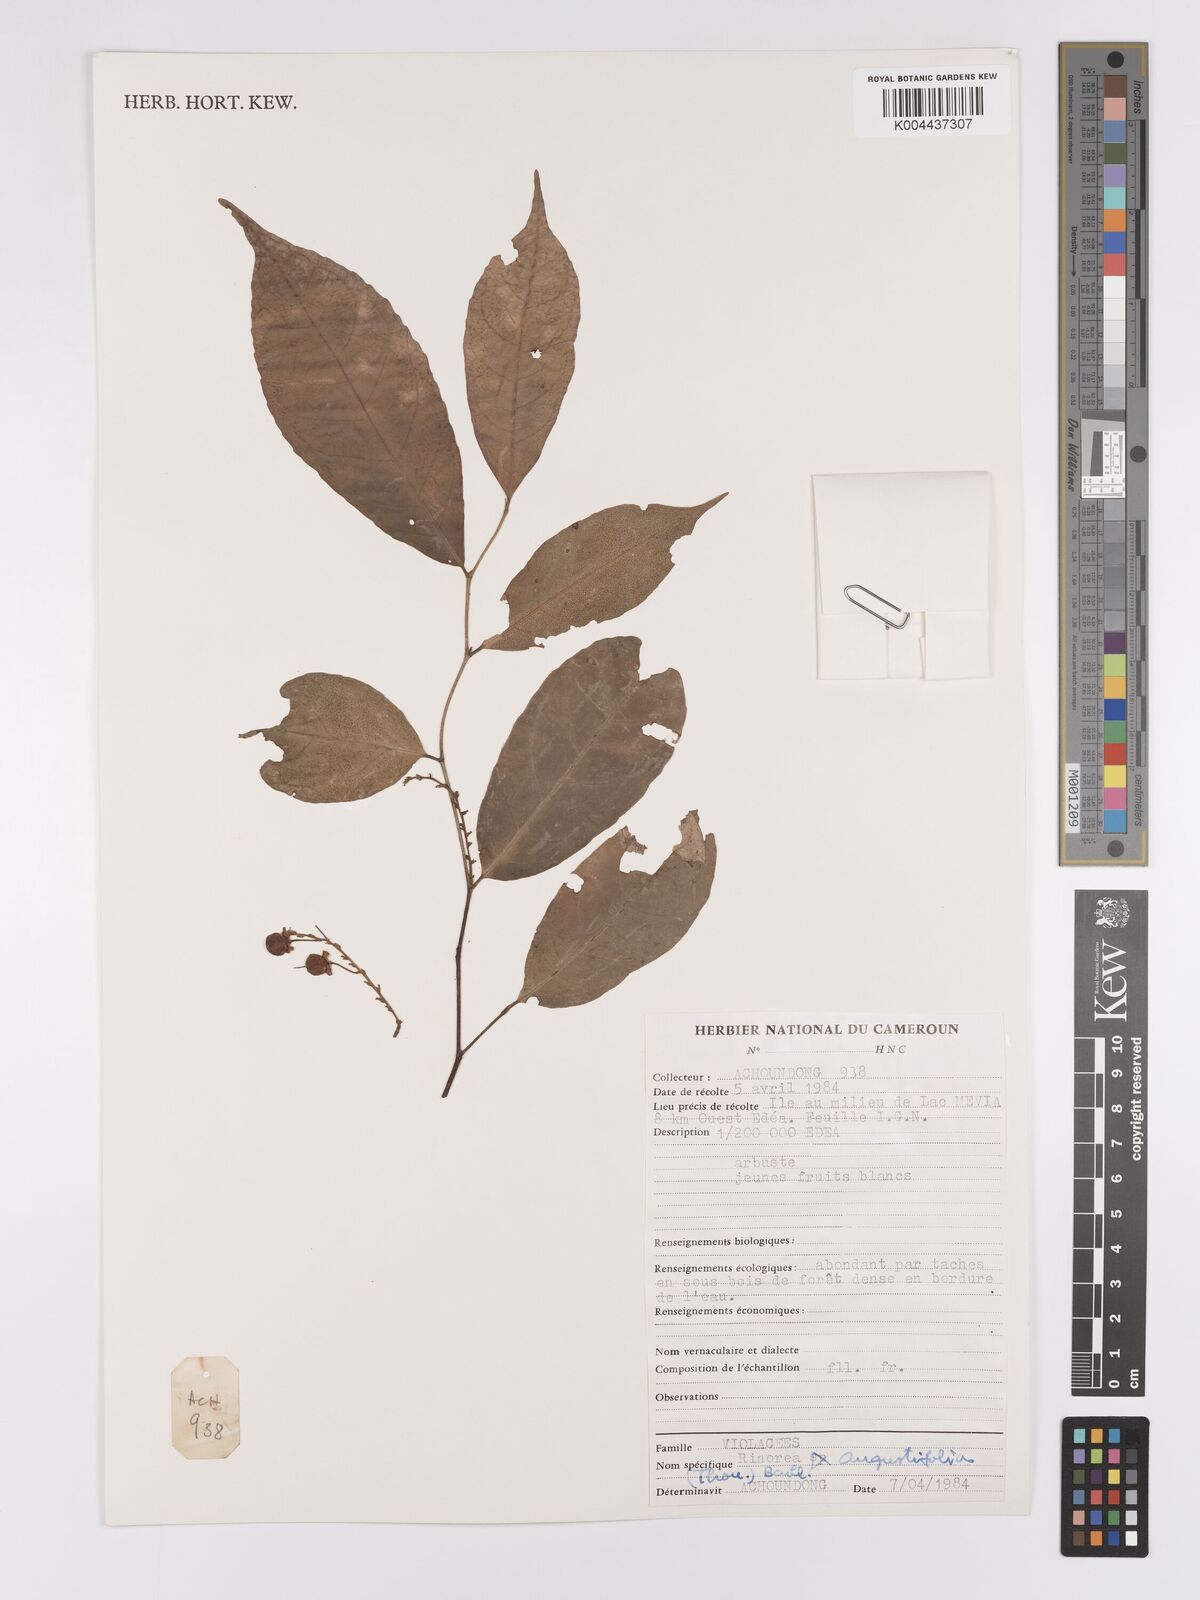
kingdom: Plantae
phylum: Tracheophyta
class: Magnoliopsida
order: Malpighiales
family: Violaceae
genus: Rinorea
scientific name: Rinorea angustifolia
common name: White violet-bush
